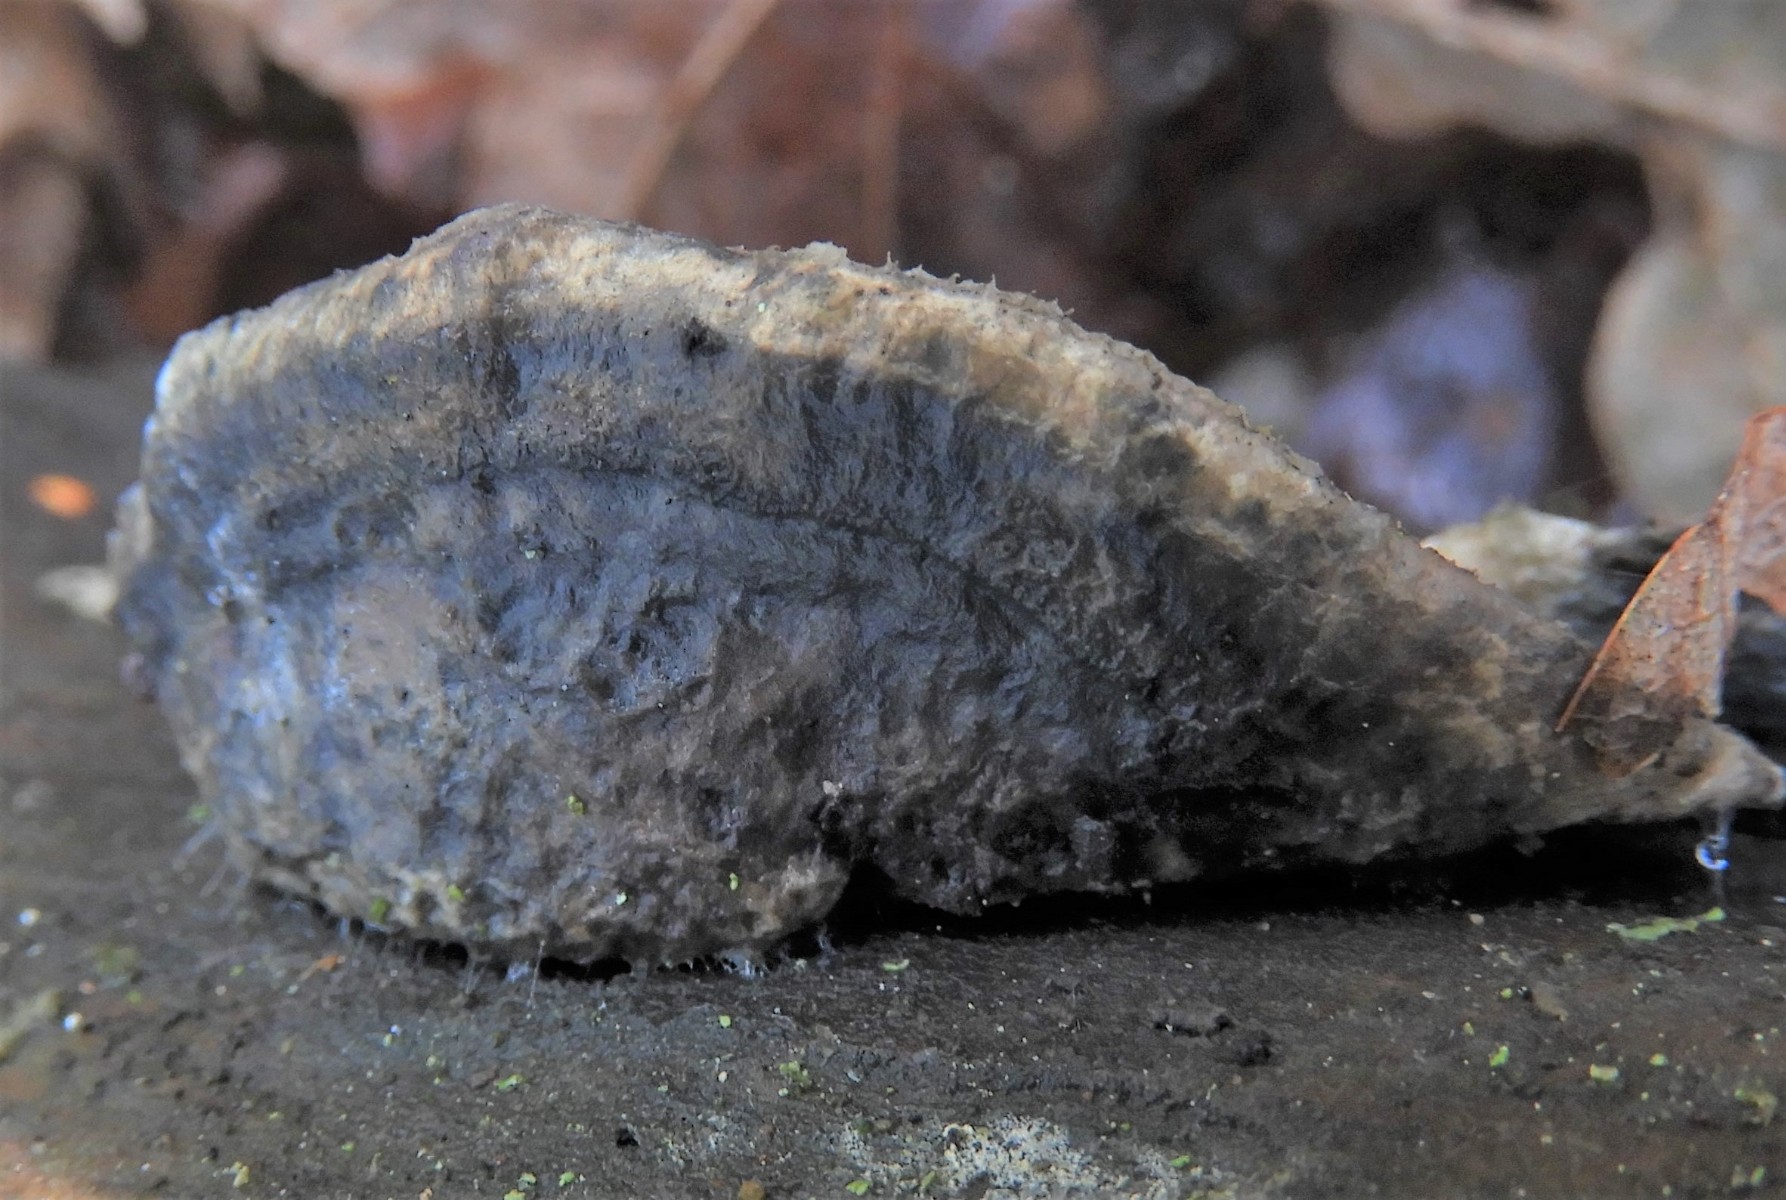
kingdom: Fungi
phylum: Basidiomycota
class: Agaricomycetes
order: Polyporales
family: Polyporaceae
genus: Cyanosporus
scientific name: Cyanosporus caesius
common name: blålig kødporesvamp
